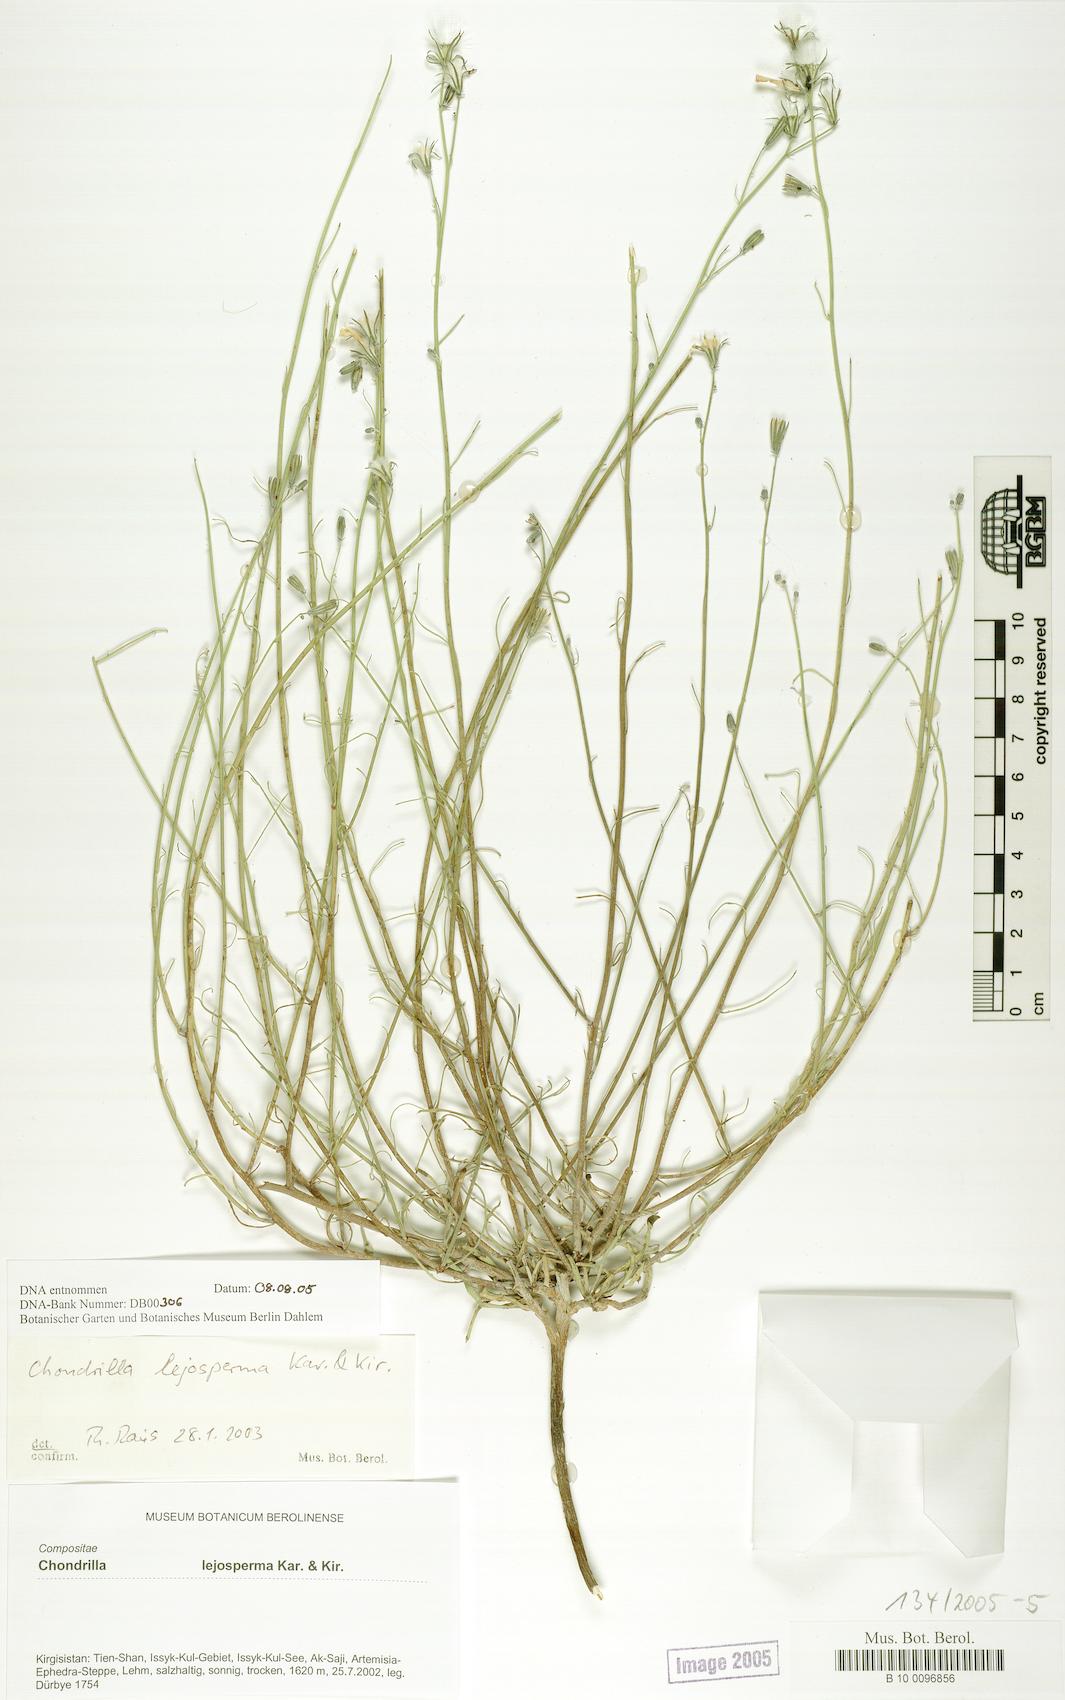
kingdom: Plantae
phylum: Tracheophyta
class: Magnoliopsida
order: Asterales
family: Asteraceae
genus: Chondrilla
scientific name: Chondrilla lejosperma
